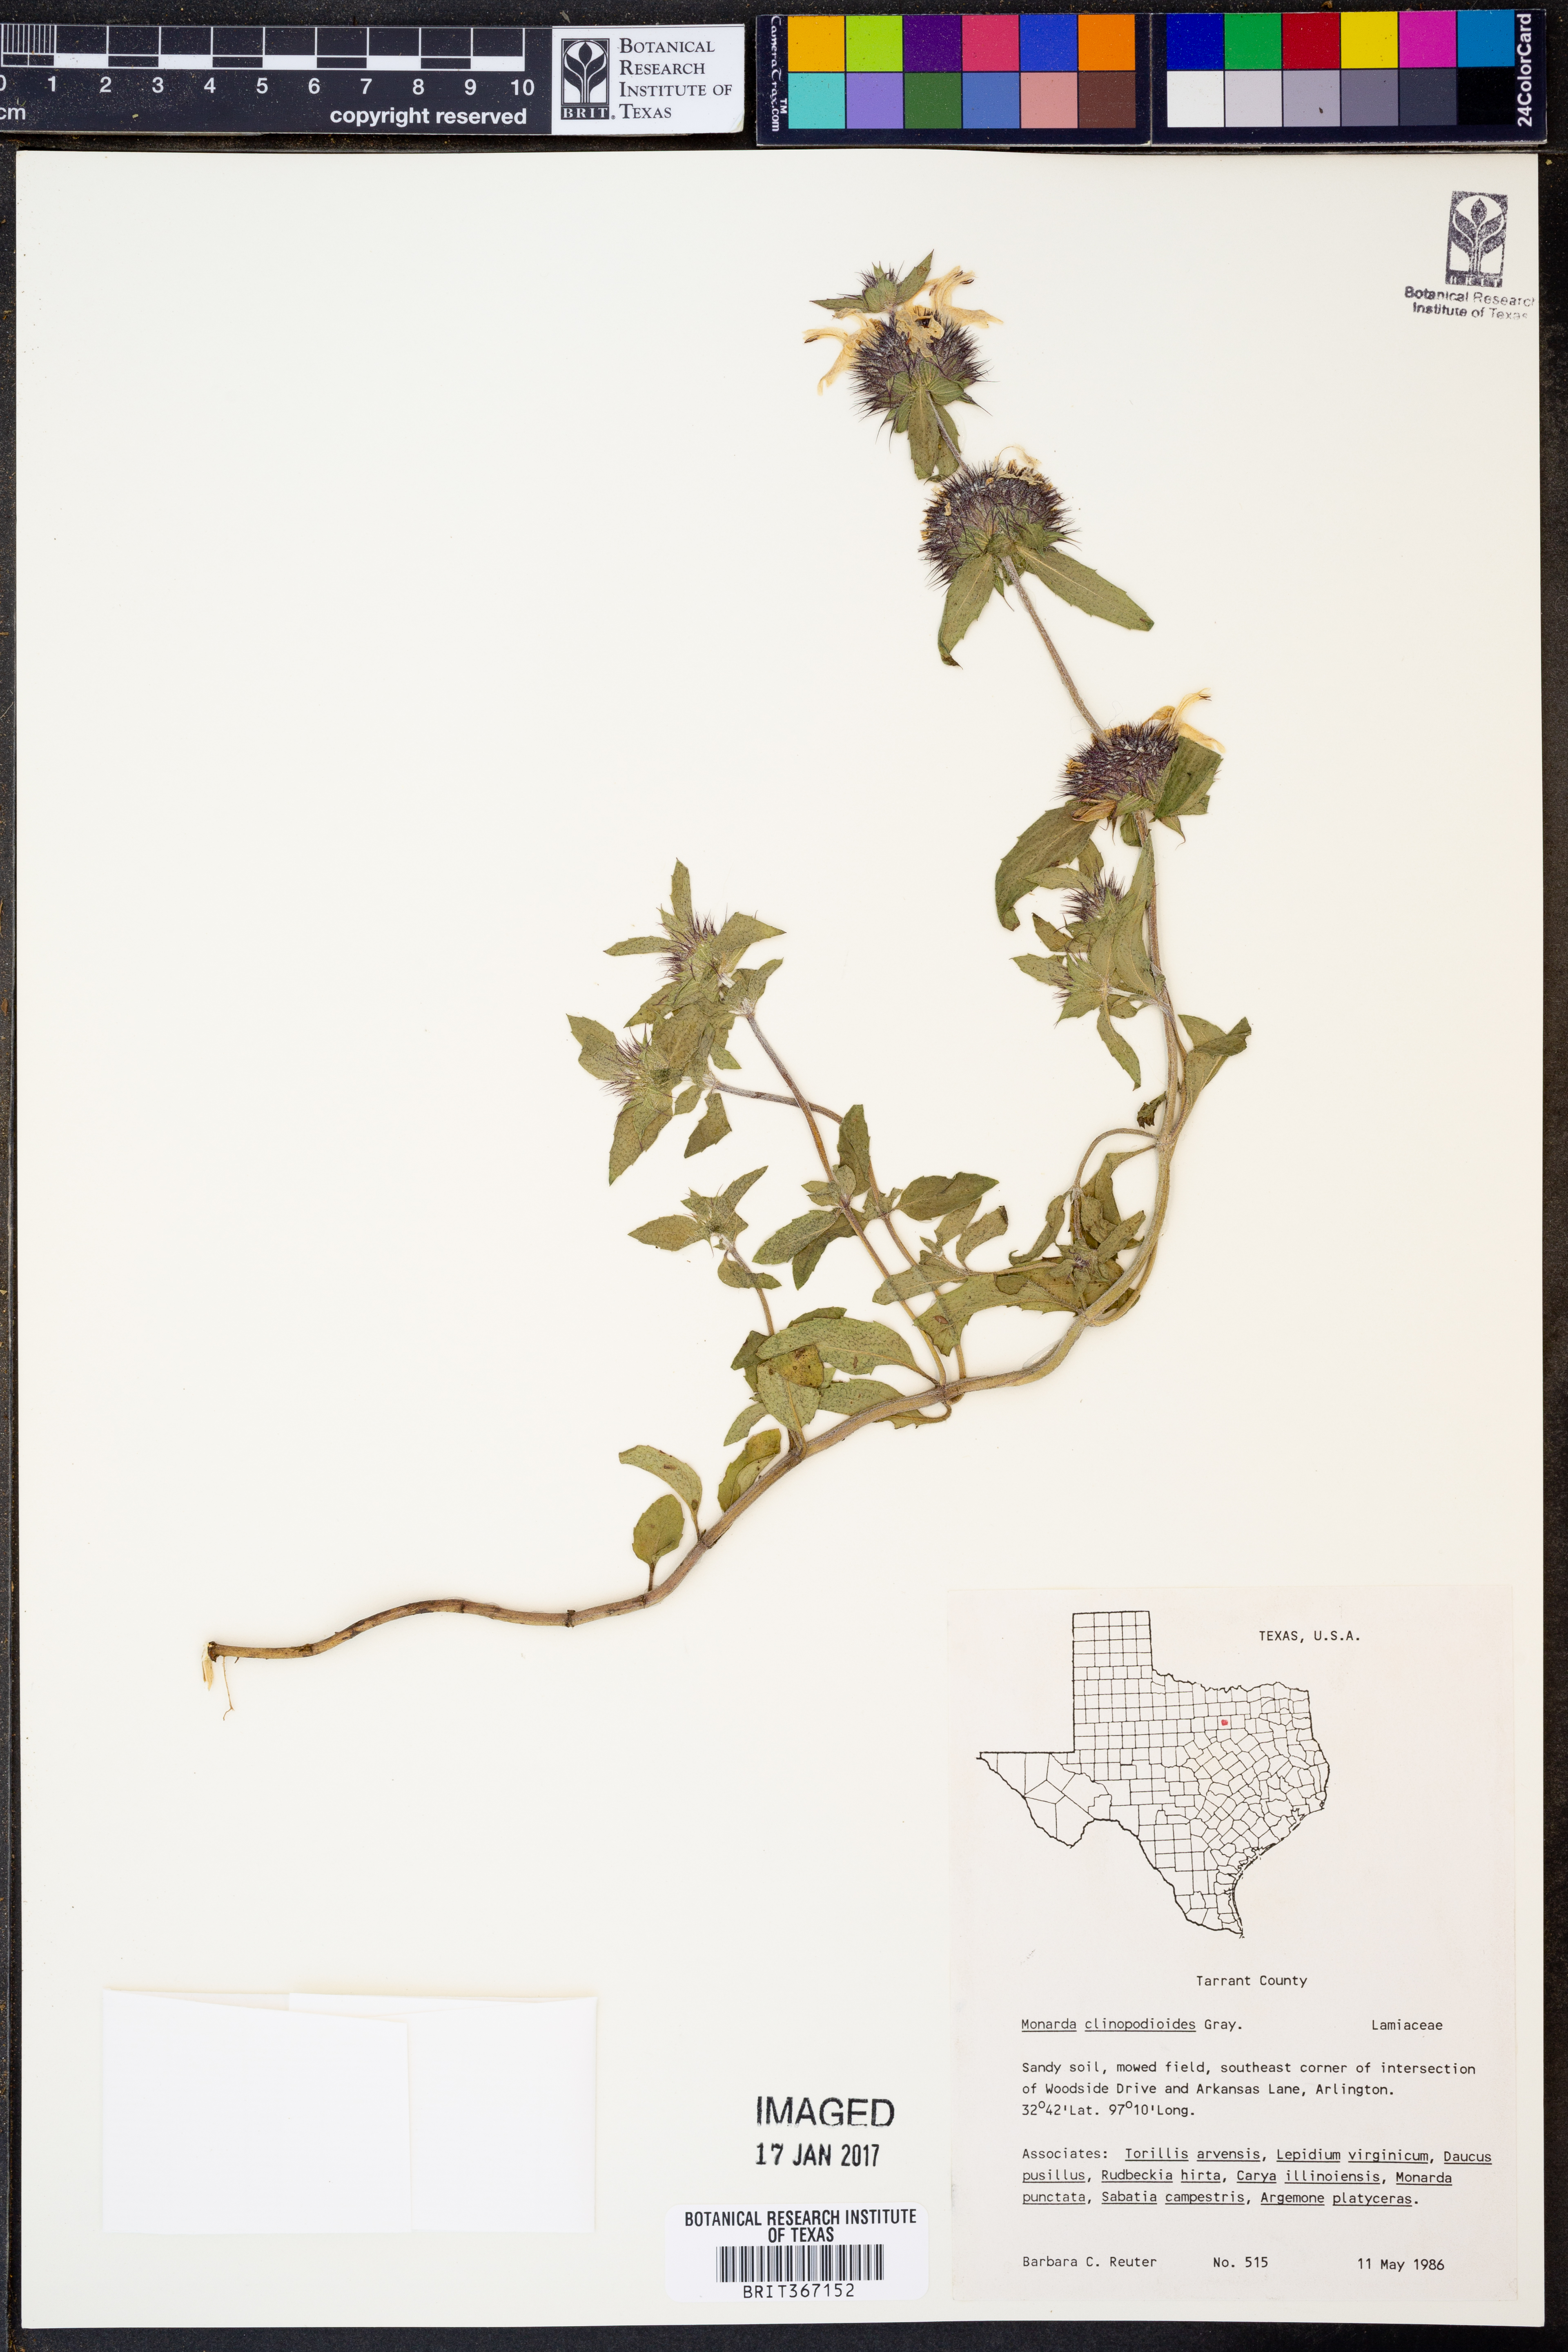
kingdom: Plantae
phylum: Tracheophyta
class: Magnoliopsida
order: Lamiales
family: Lamiaceae
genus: Monarda
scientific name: Monarda clinopodioides
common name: Basil beebalm
